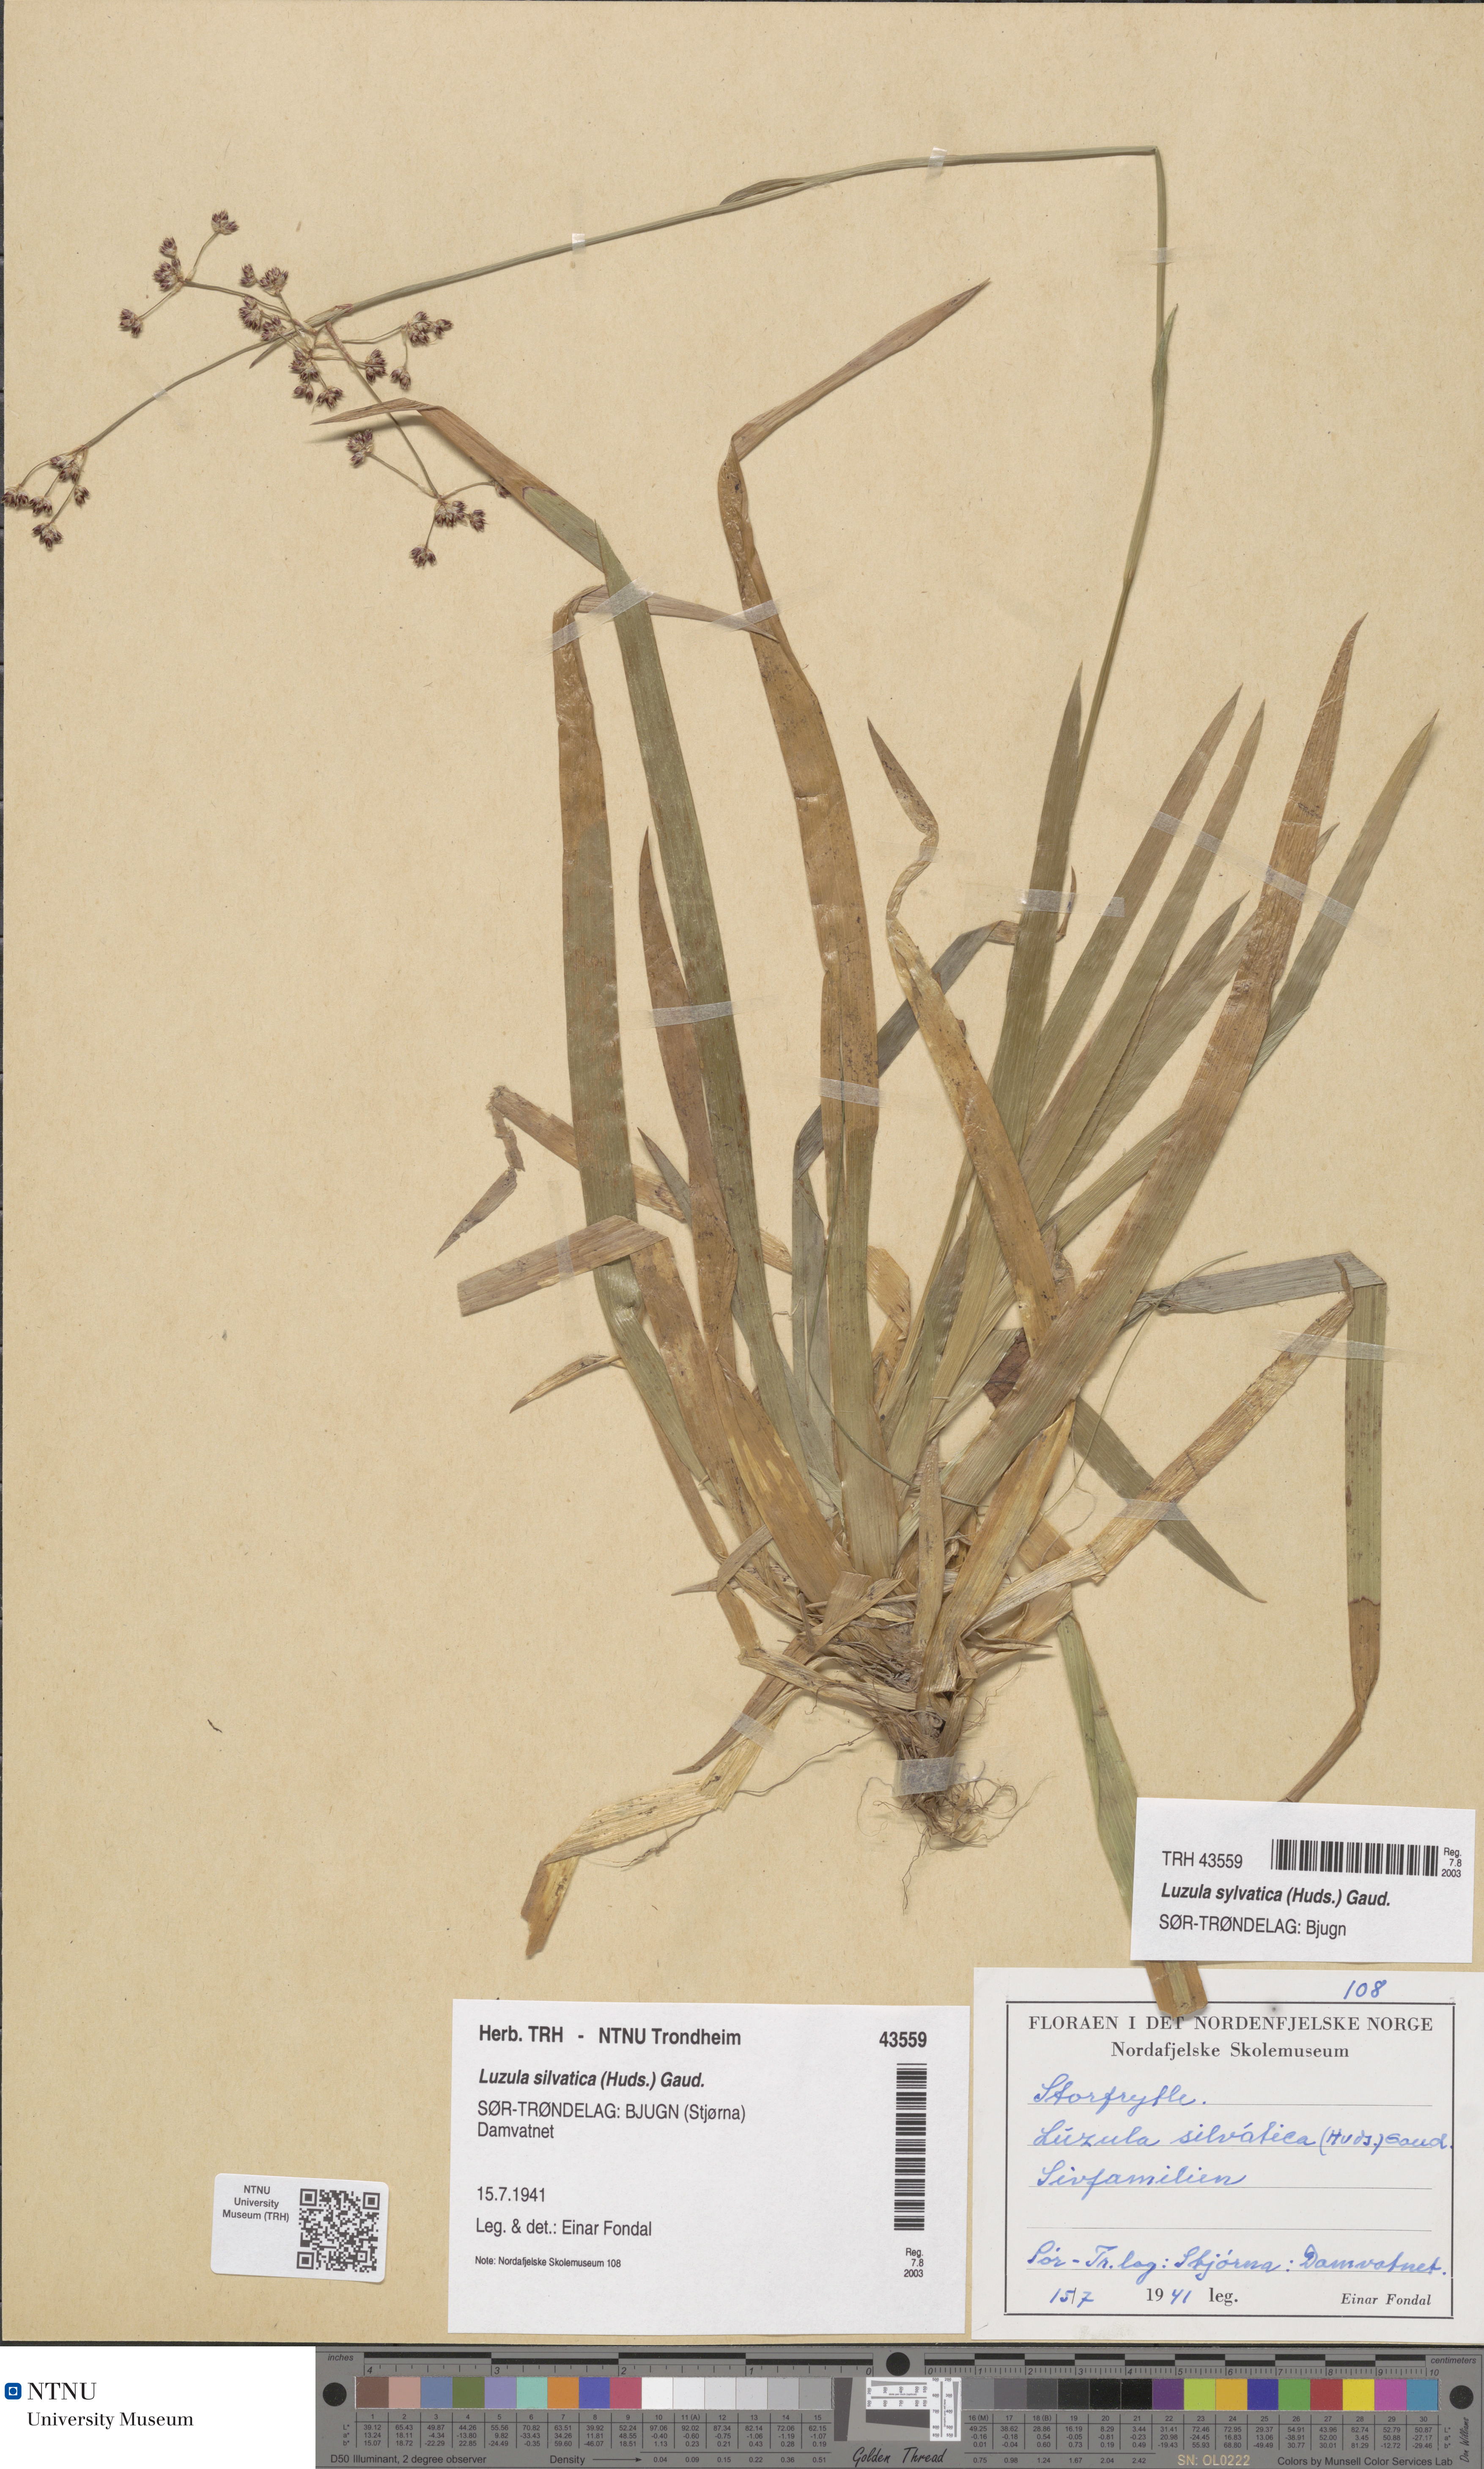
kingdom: Plantae
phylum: Tracheophyta
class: Liliopsida
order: Poales
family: Juncaceae
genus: Luzula
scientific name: Luzula sylvatica
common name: Great wood-rush
